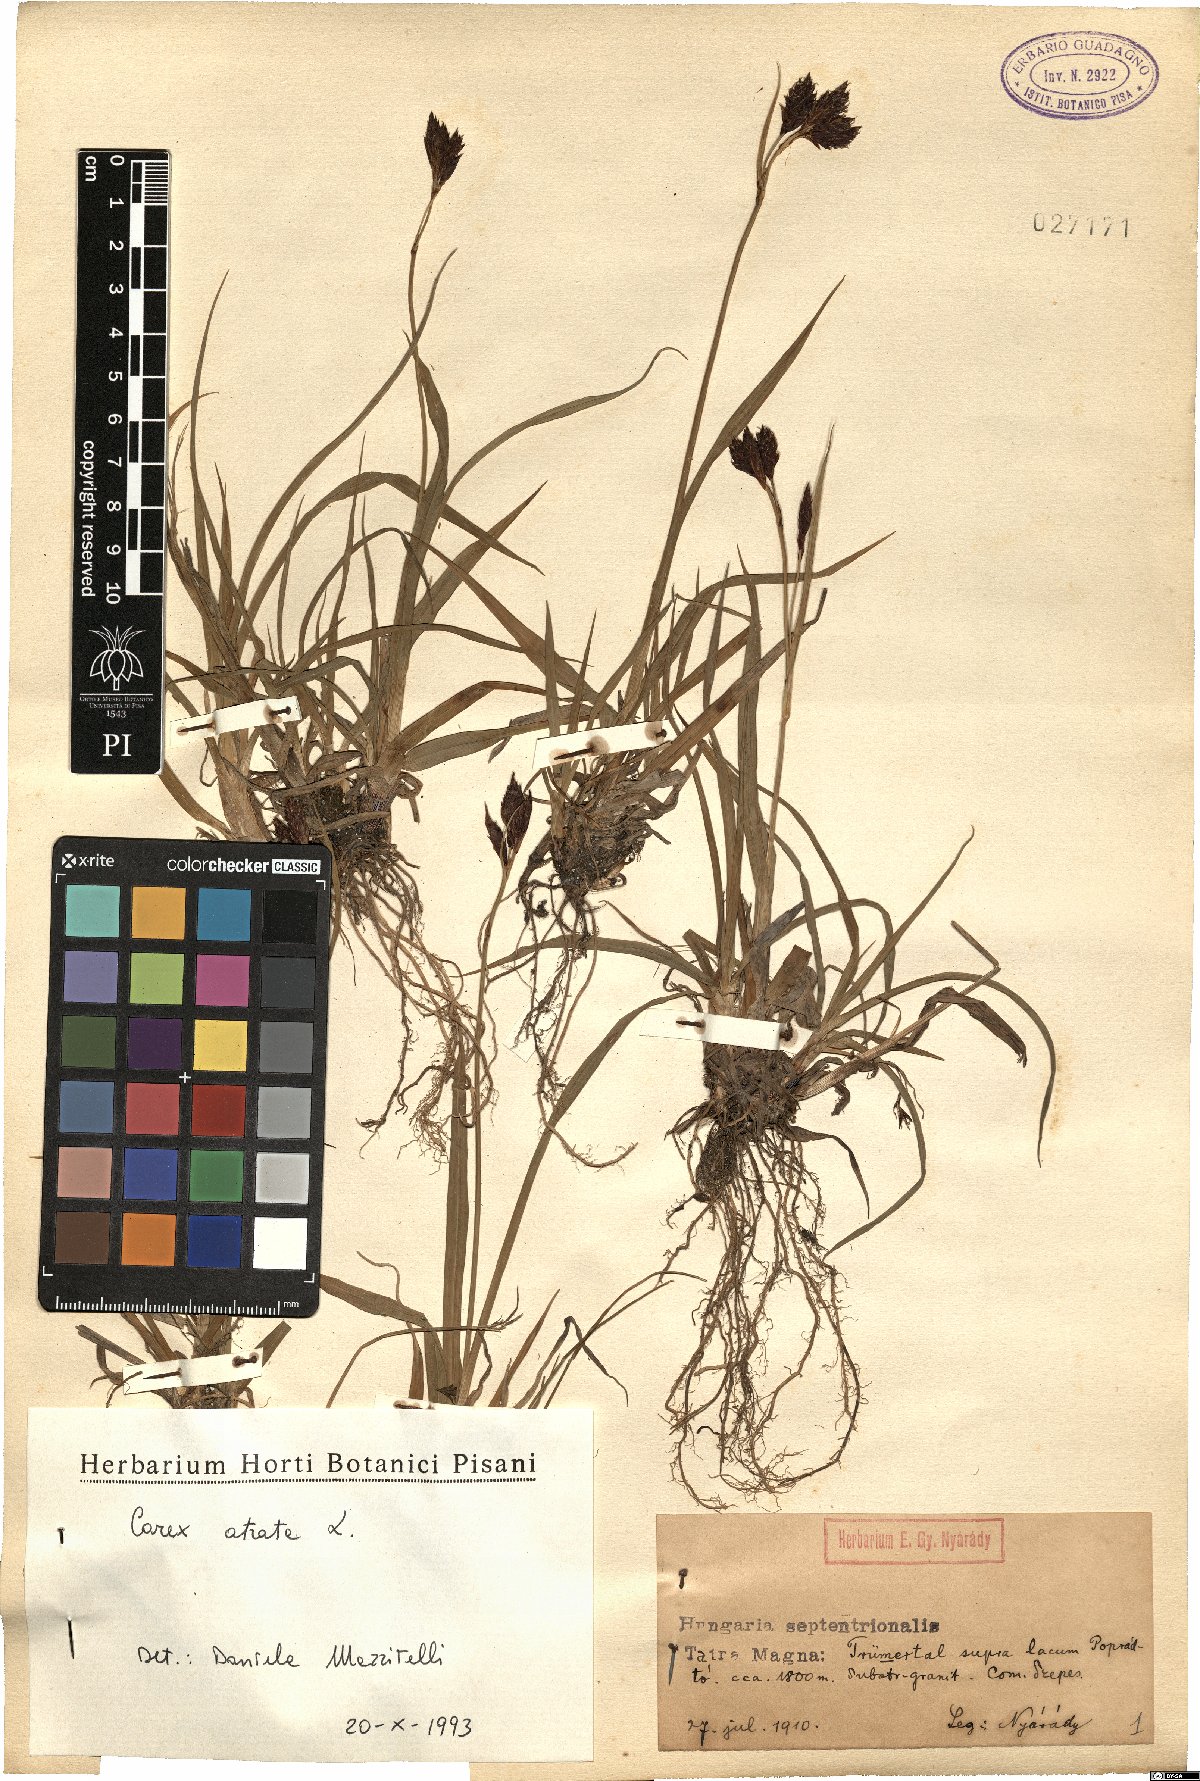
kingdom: Plantae
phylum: Tracheophyta
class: Liliopsida
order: Poales
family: Cyperaceae
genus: Carex
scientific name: Carex atrata
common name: Black alpine sedge
